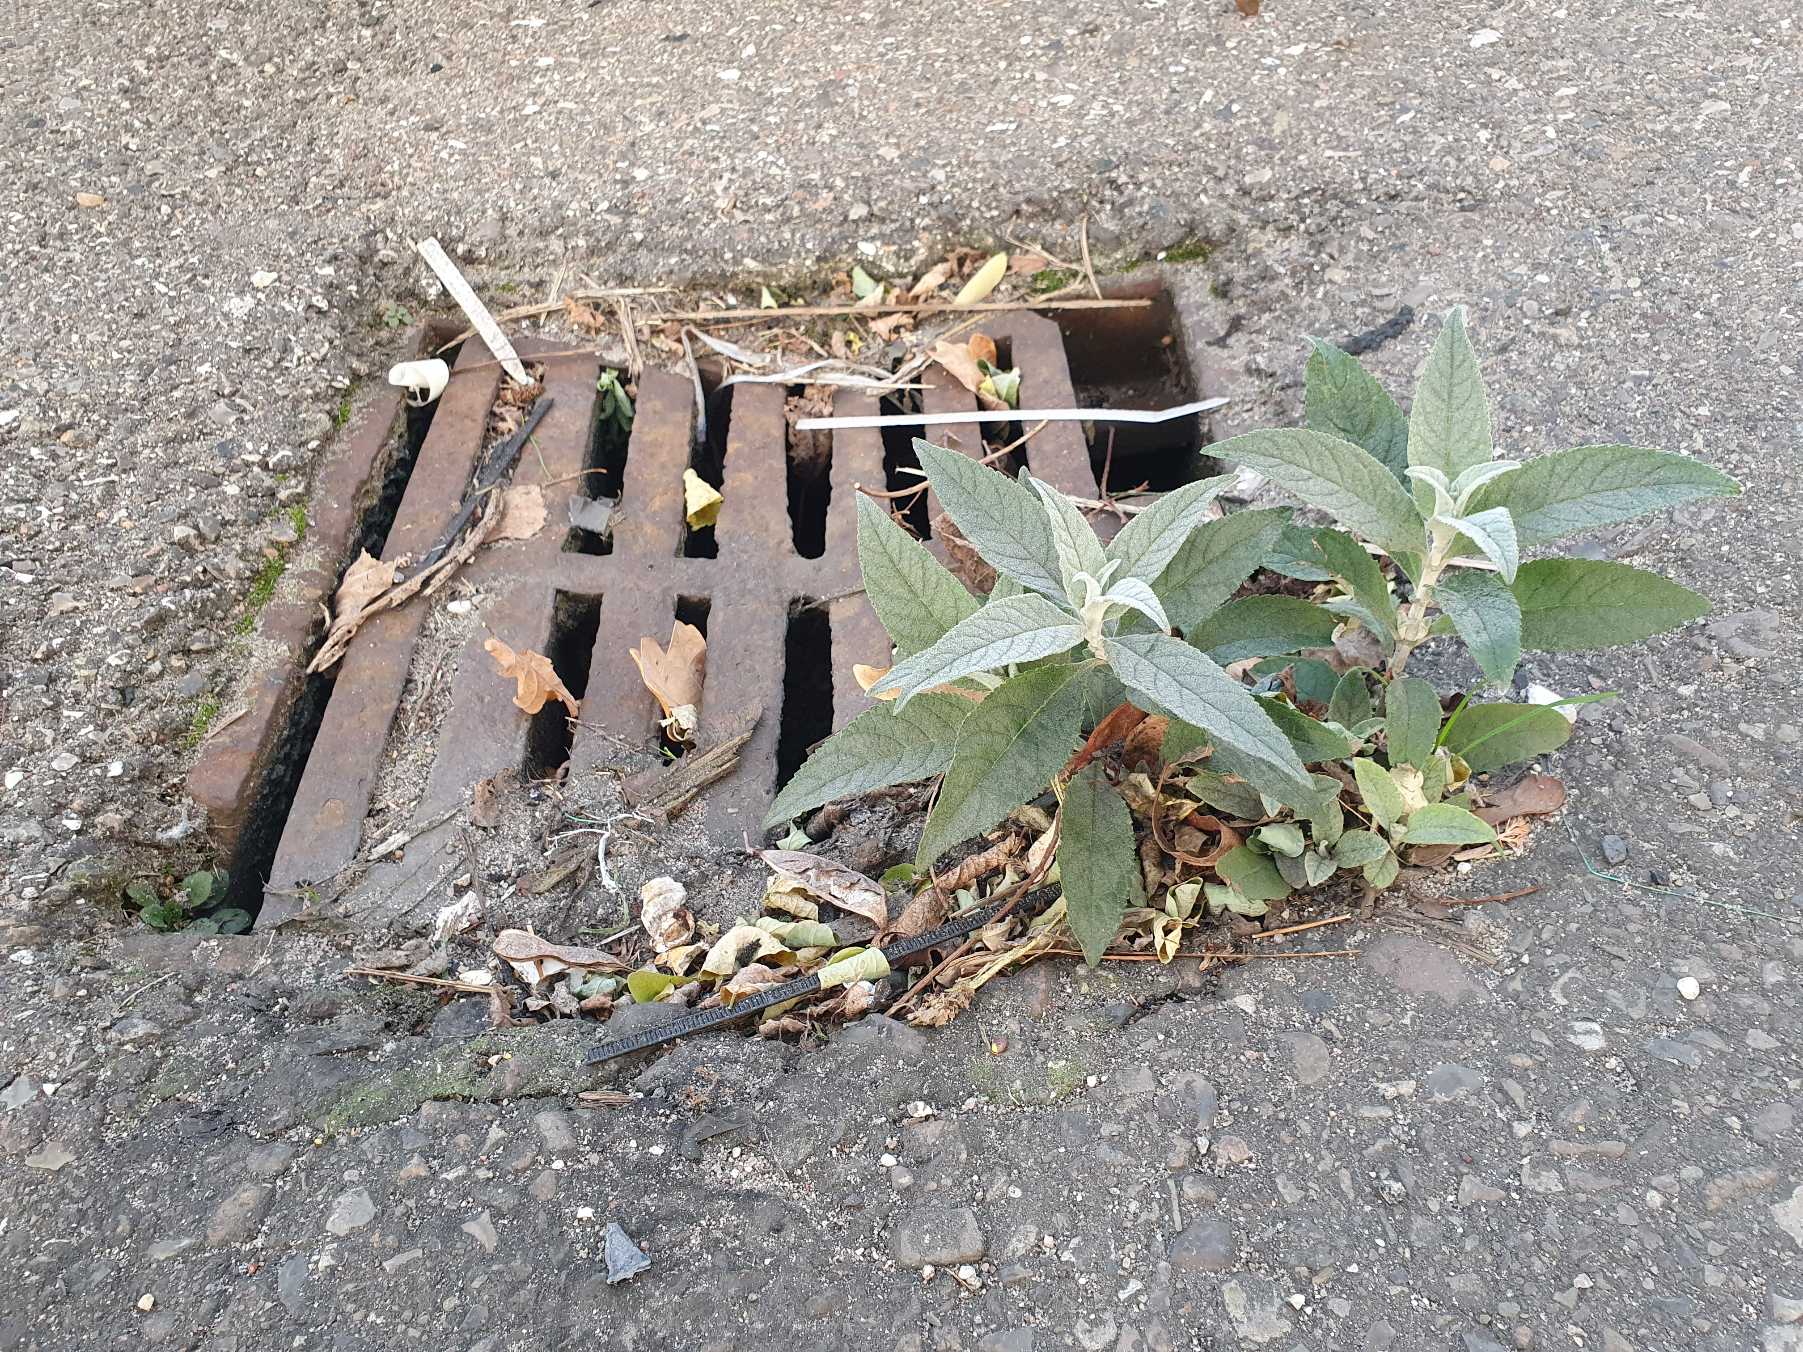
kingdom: Plantae
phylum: Tracheophyta
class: Magnoliopsida
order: Lamiales
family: Scrophulariaceae
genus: Buddleja
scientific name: Buddleja davidii
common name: Sommerfuglebusk
